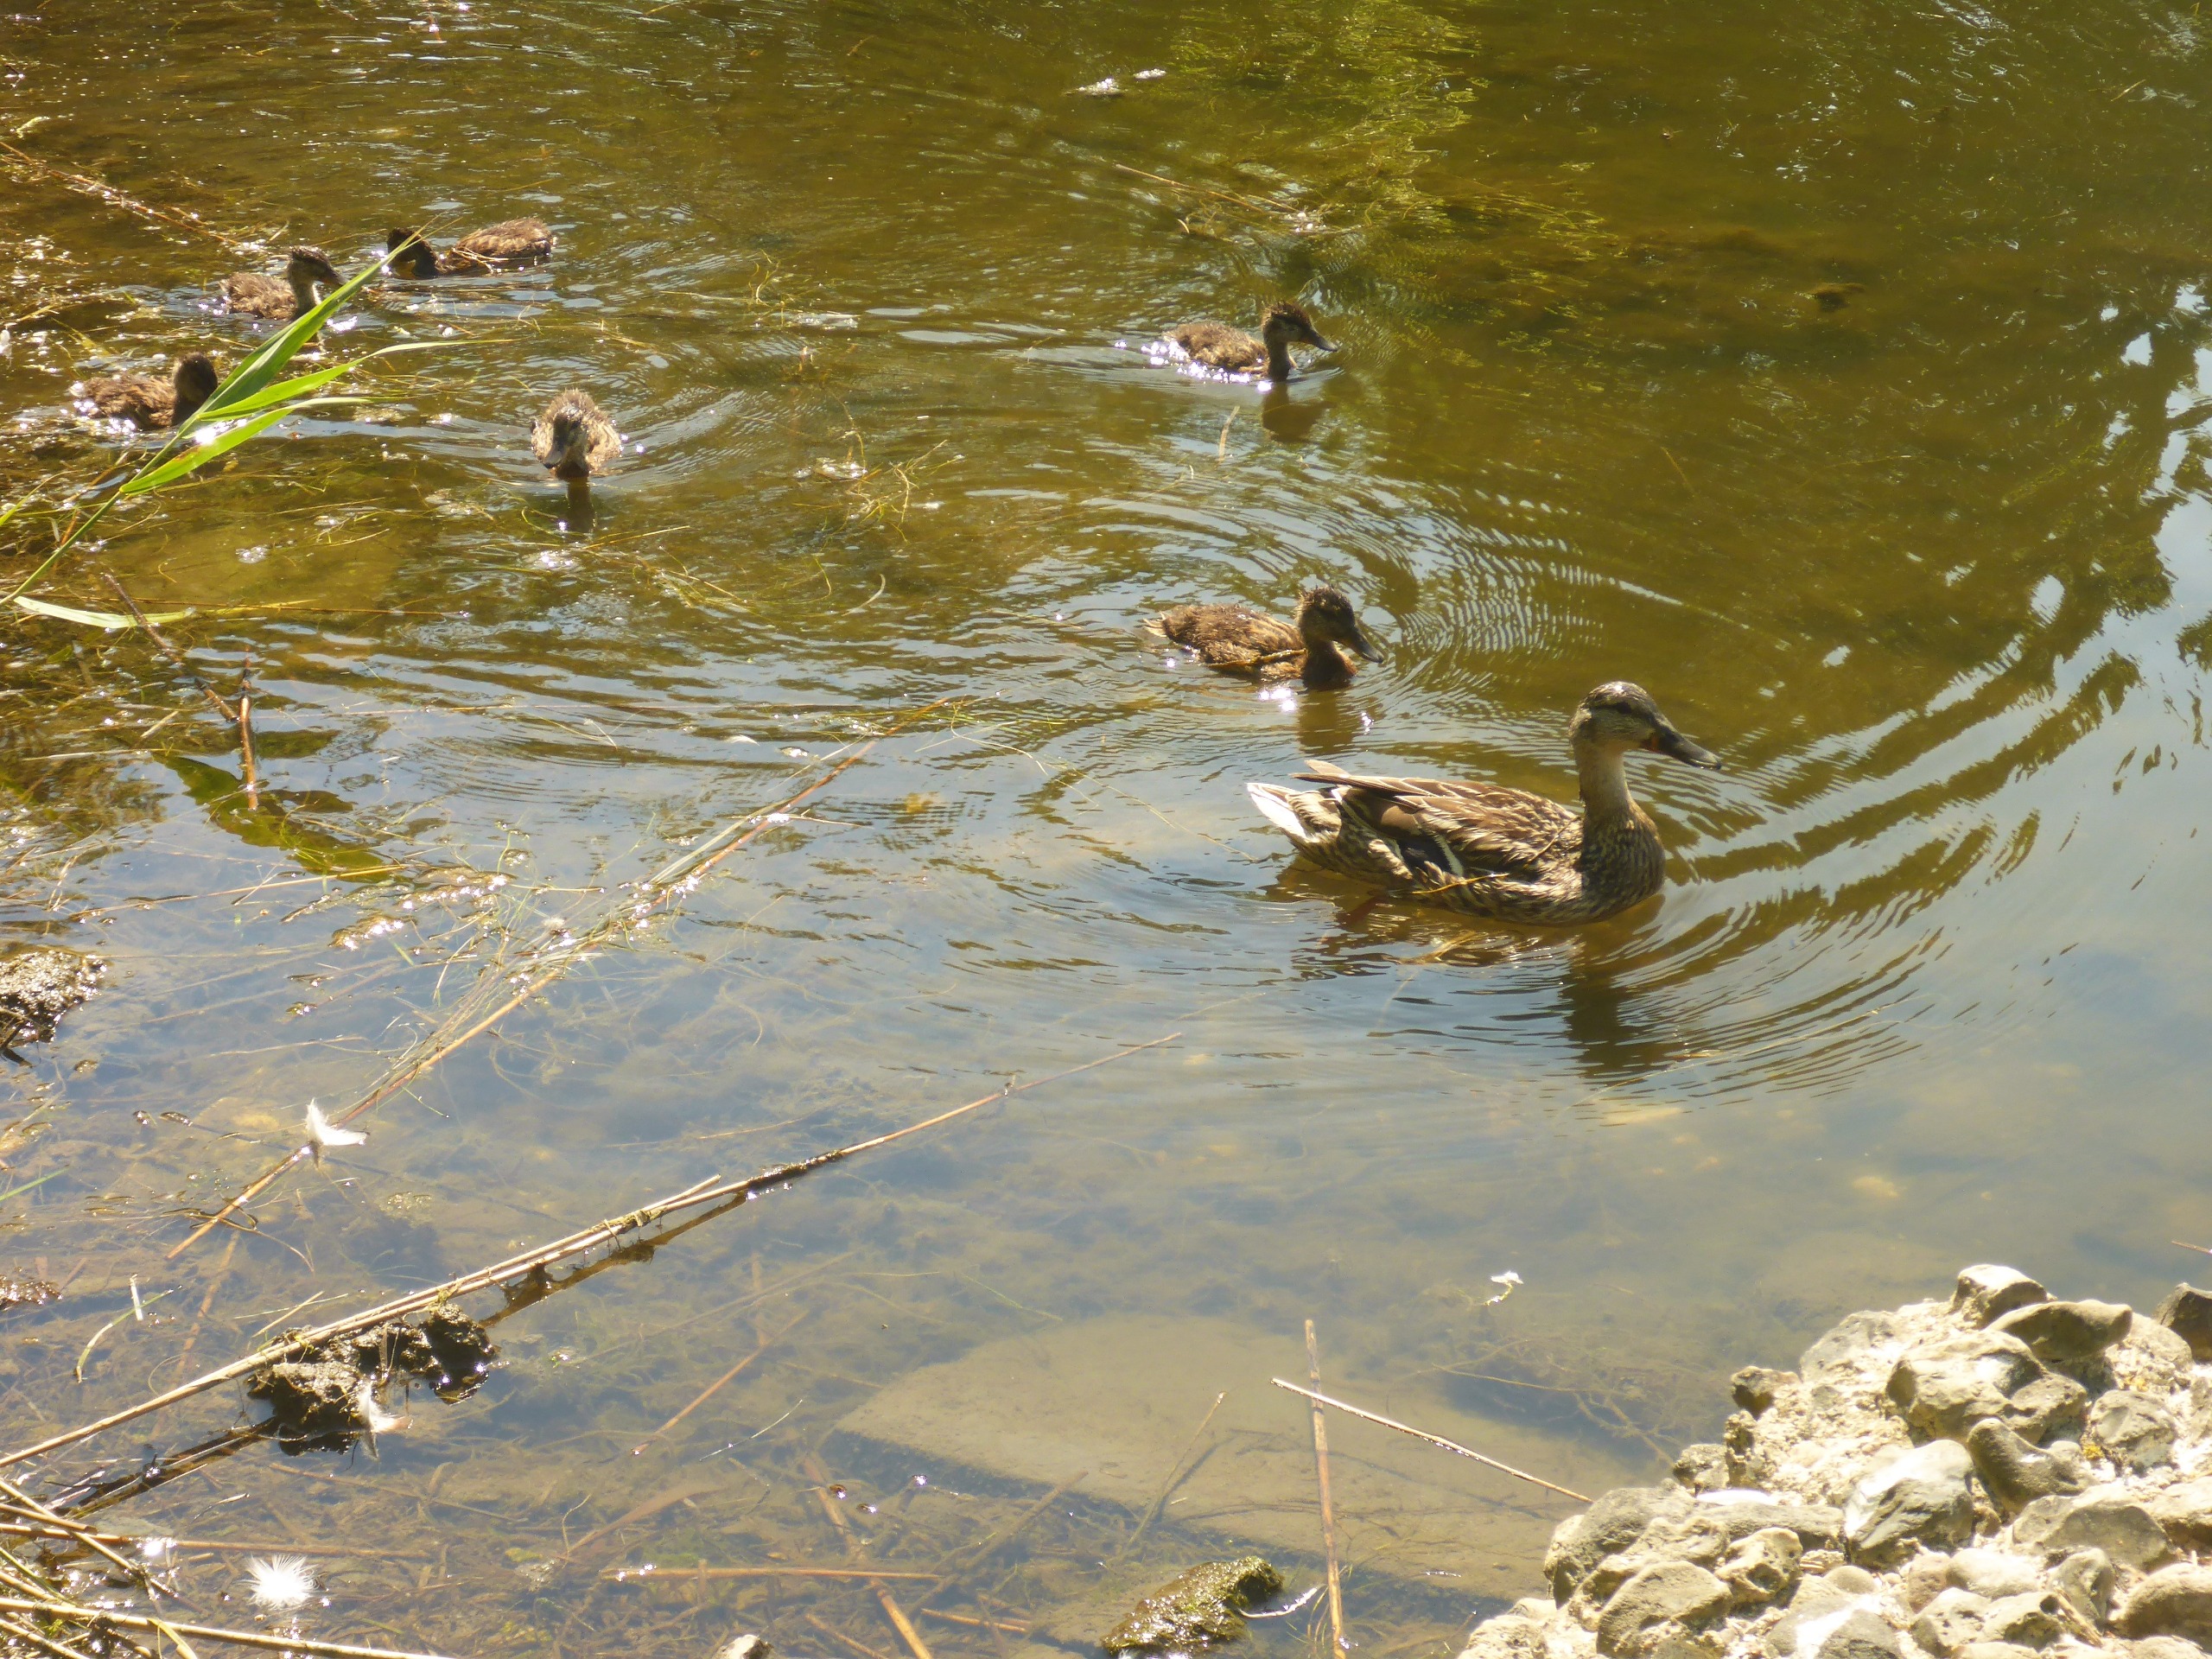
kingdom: Animalia
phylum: Chordata
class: Aves
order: Anseriformes
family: Anatidae
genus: Anas
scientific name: Anas platyrhynchos
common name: Gråand
